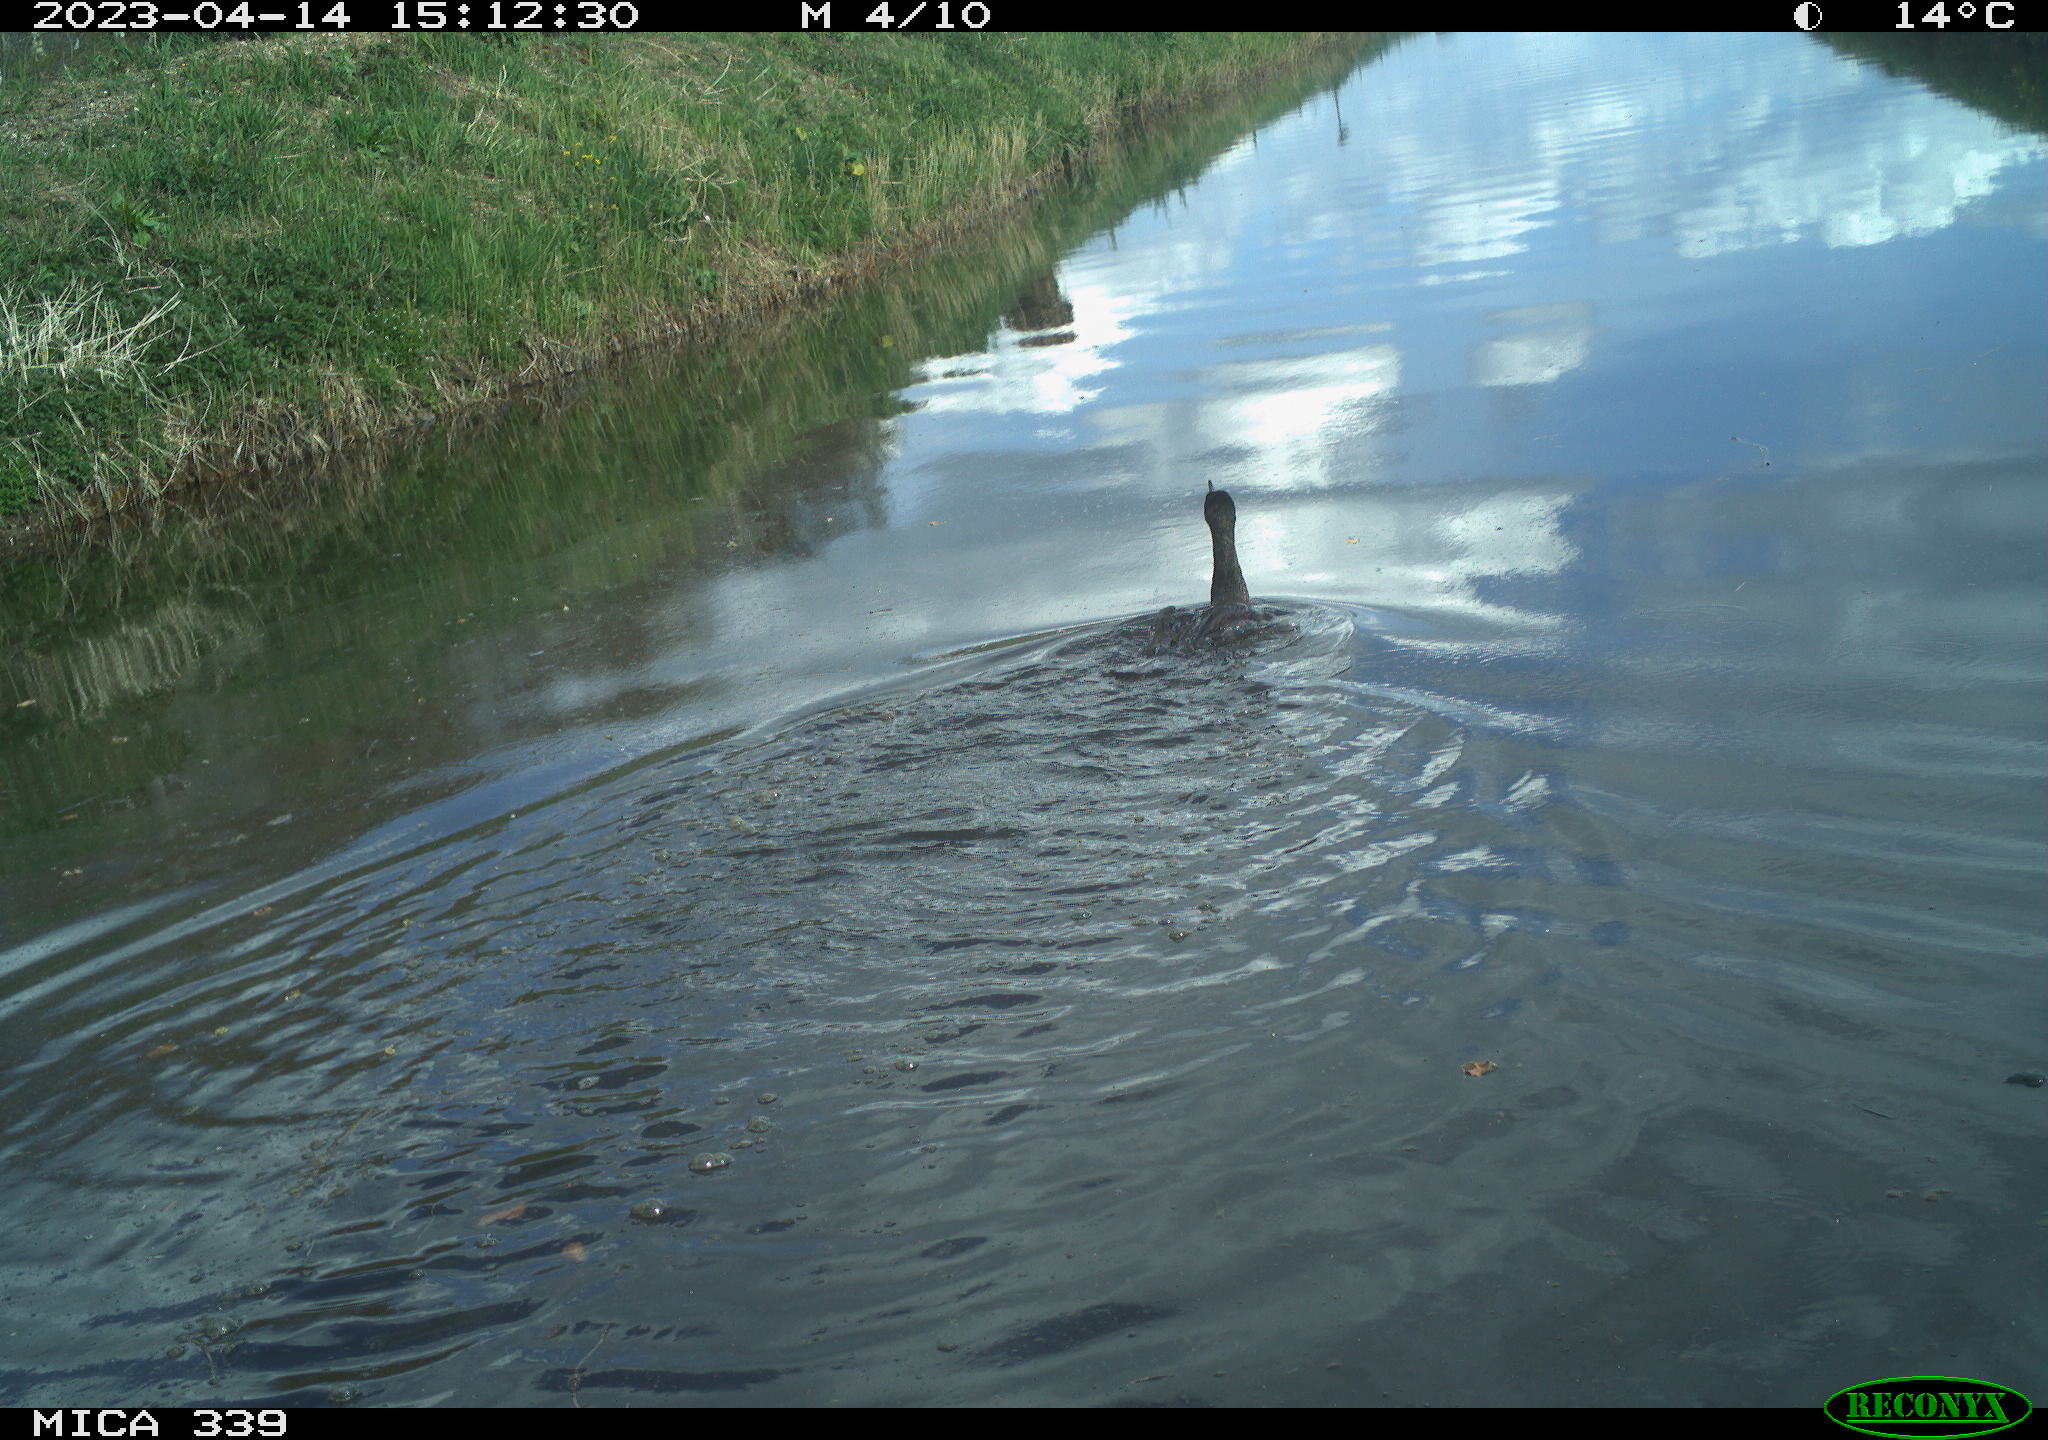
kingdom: Animalia
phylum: Chordata
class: Aves
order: Anseriformes
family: Anatidae
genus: Anas
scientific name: Anas
